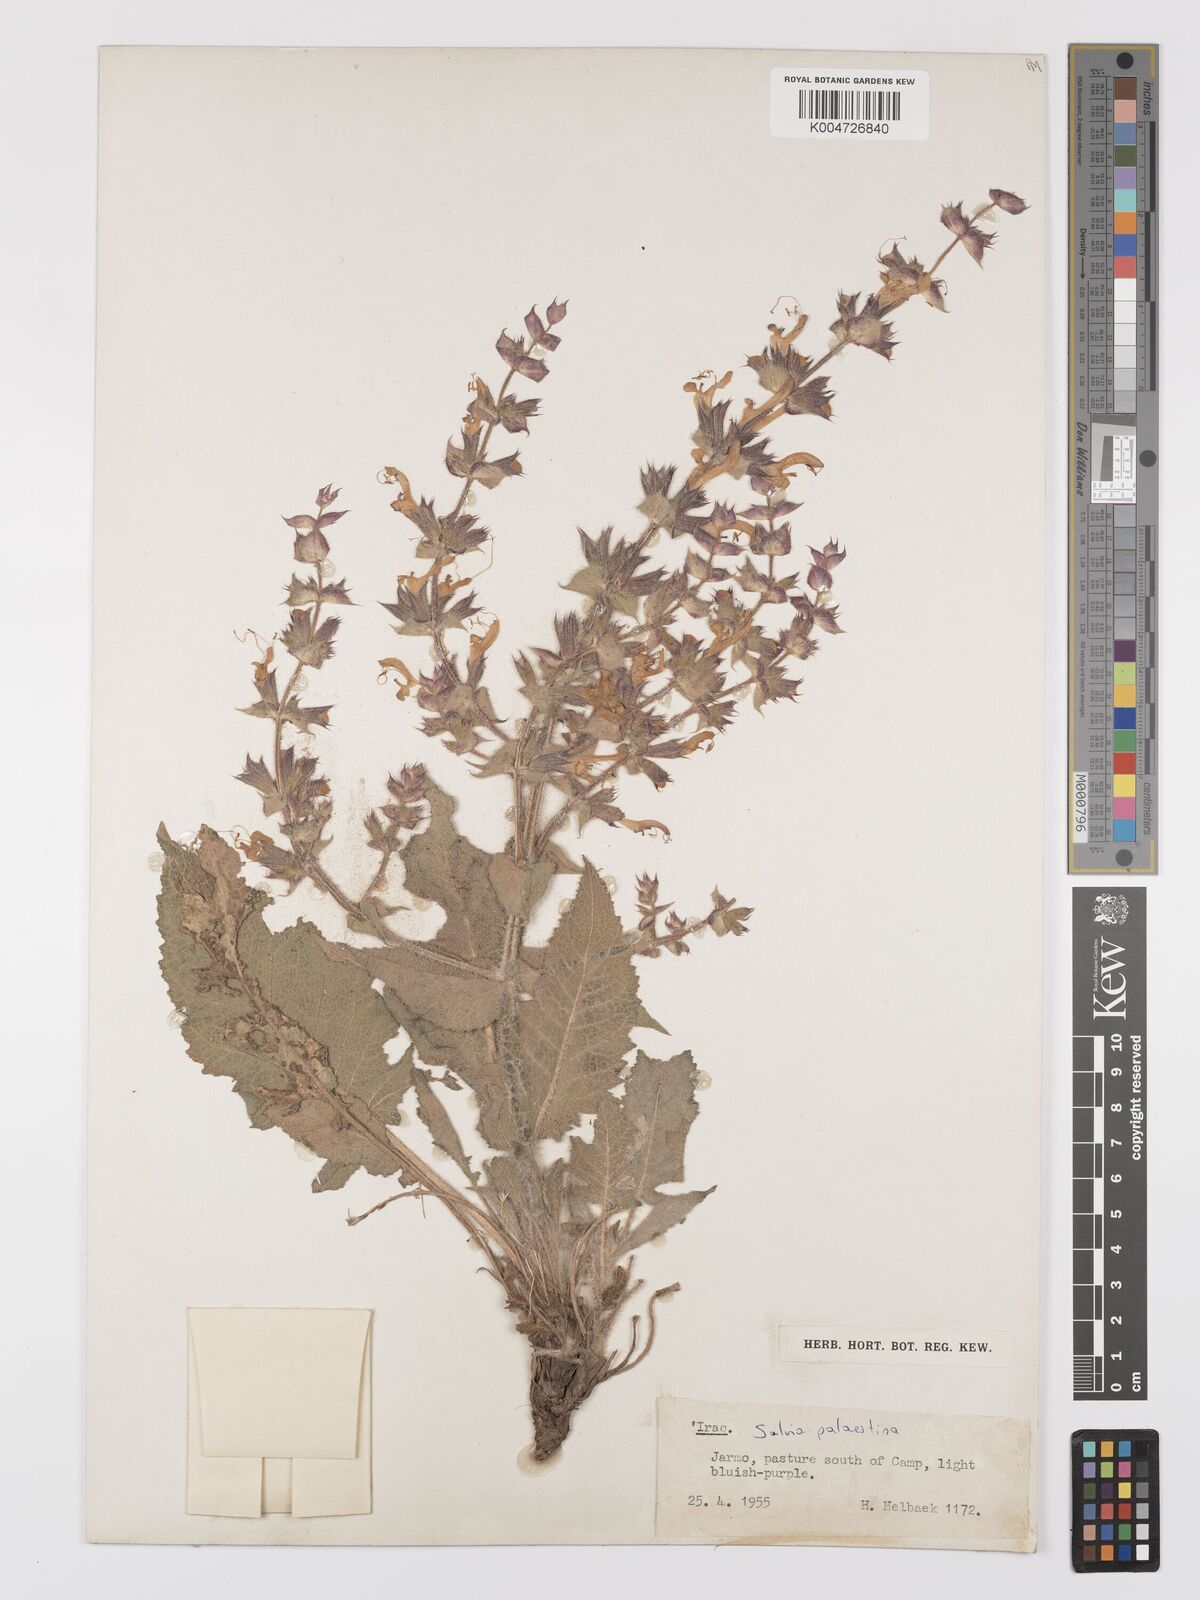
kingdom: Plantae
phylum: Tracheophyta
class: Magnoliopsida
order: Lamiales
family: Lamiaceae
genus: Salvia
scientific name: Salvia
